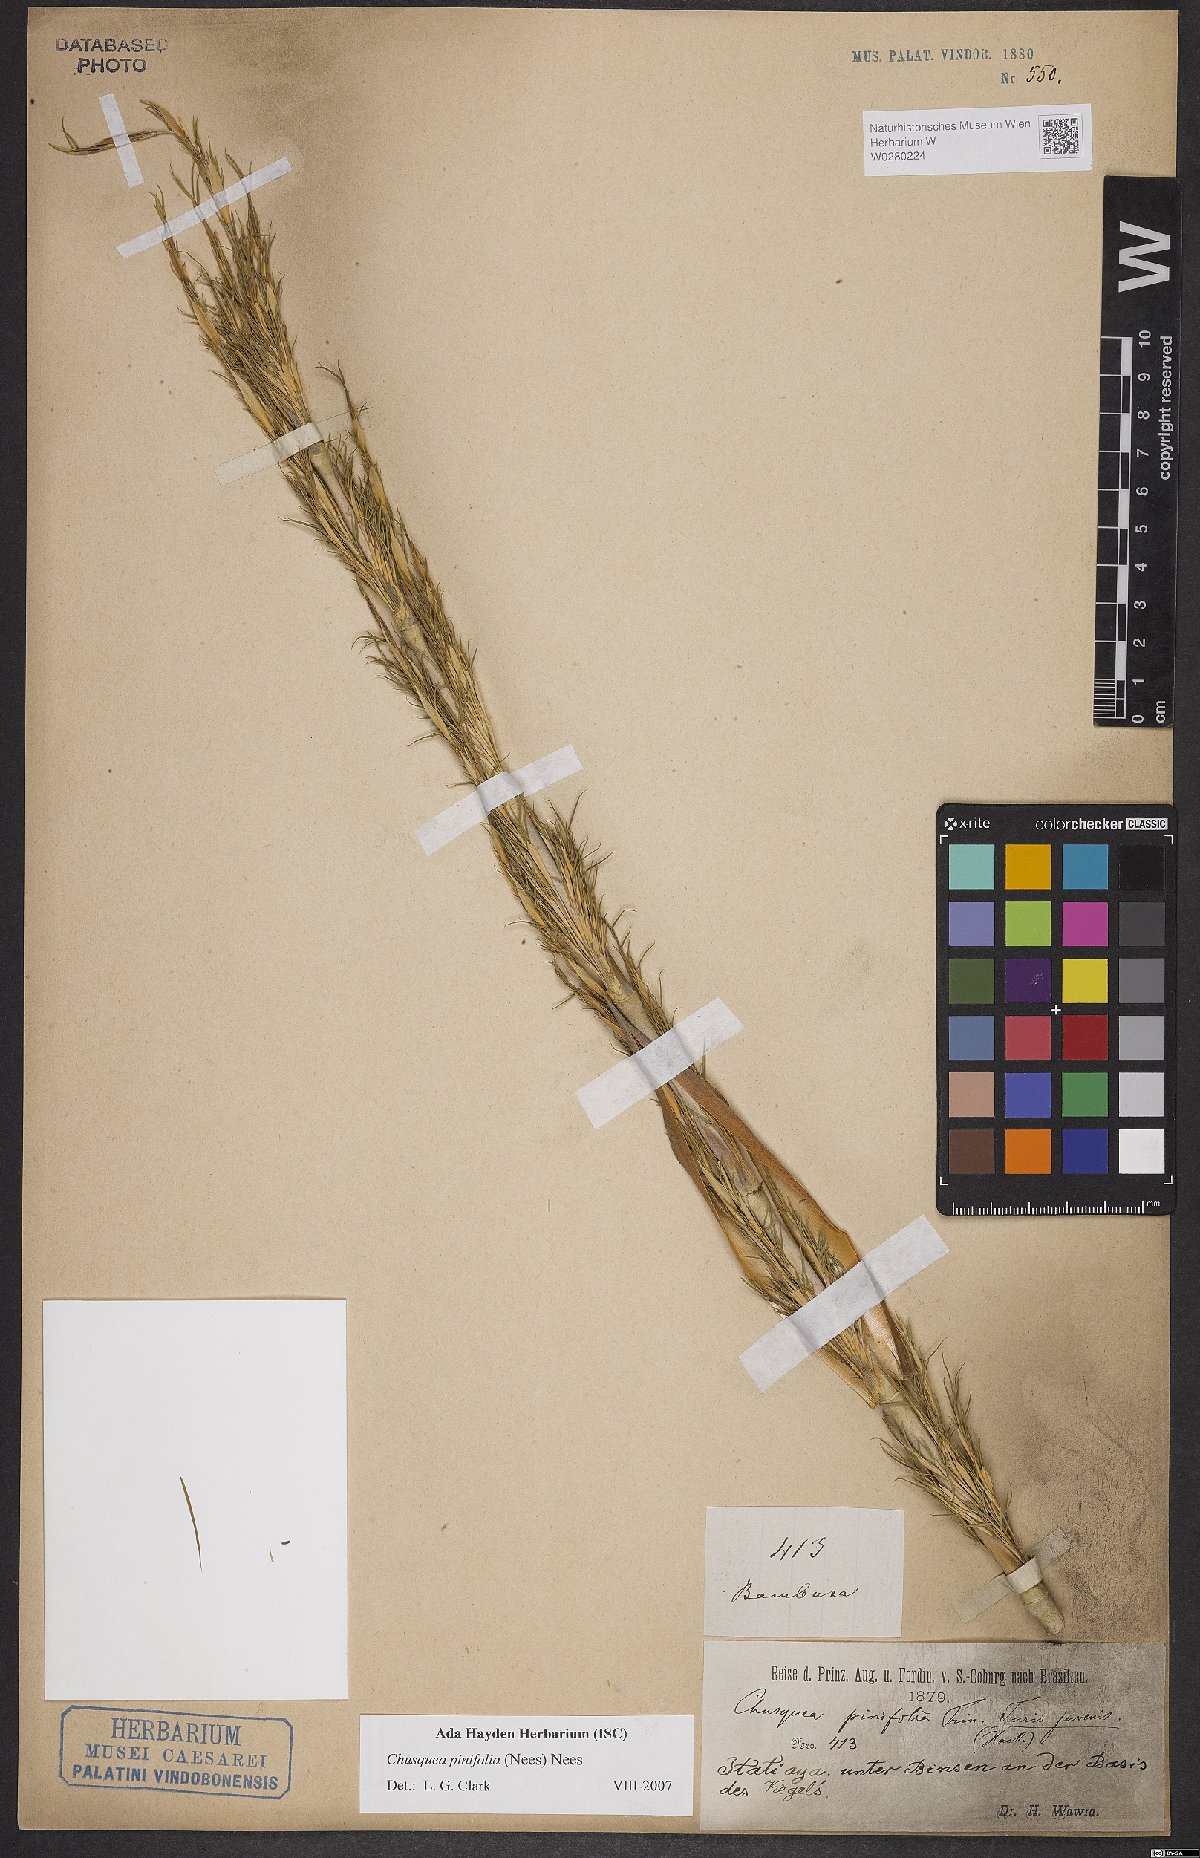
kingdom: Plantae
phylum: Tracheophyta
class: Liliopsida
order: Poales
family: Poaceae
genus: Chusquea
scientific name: Chusquea pinifolia
